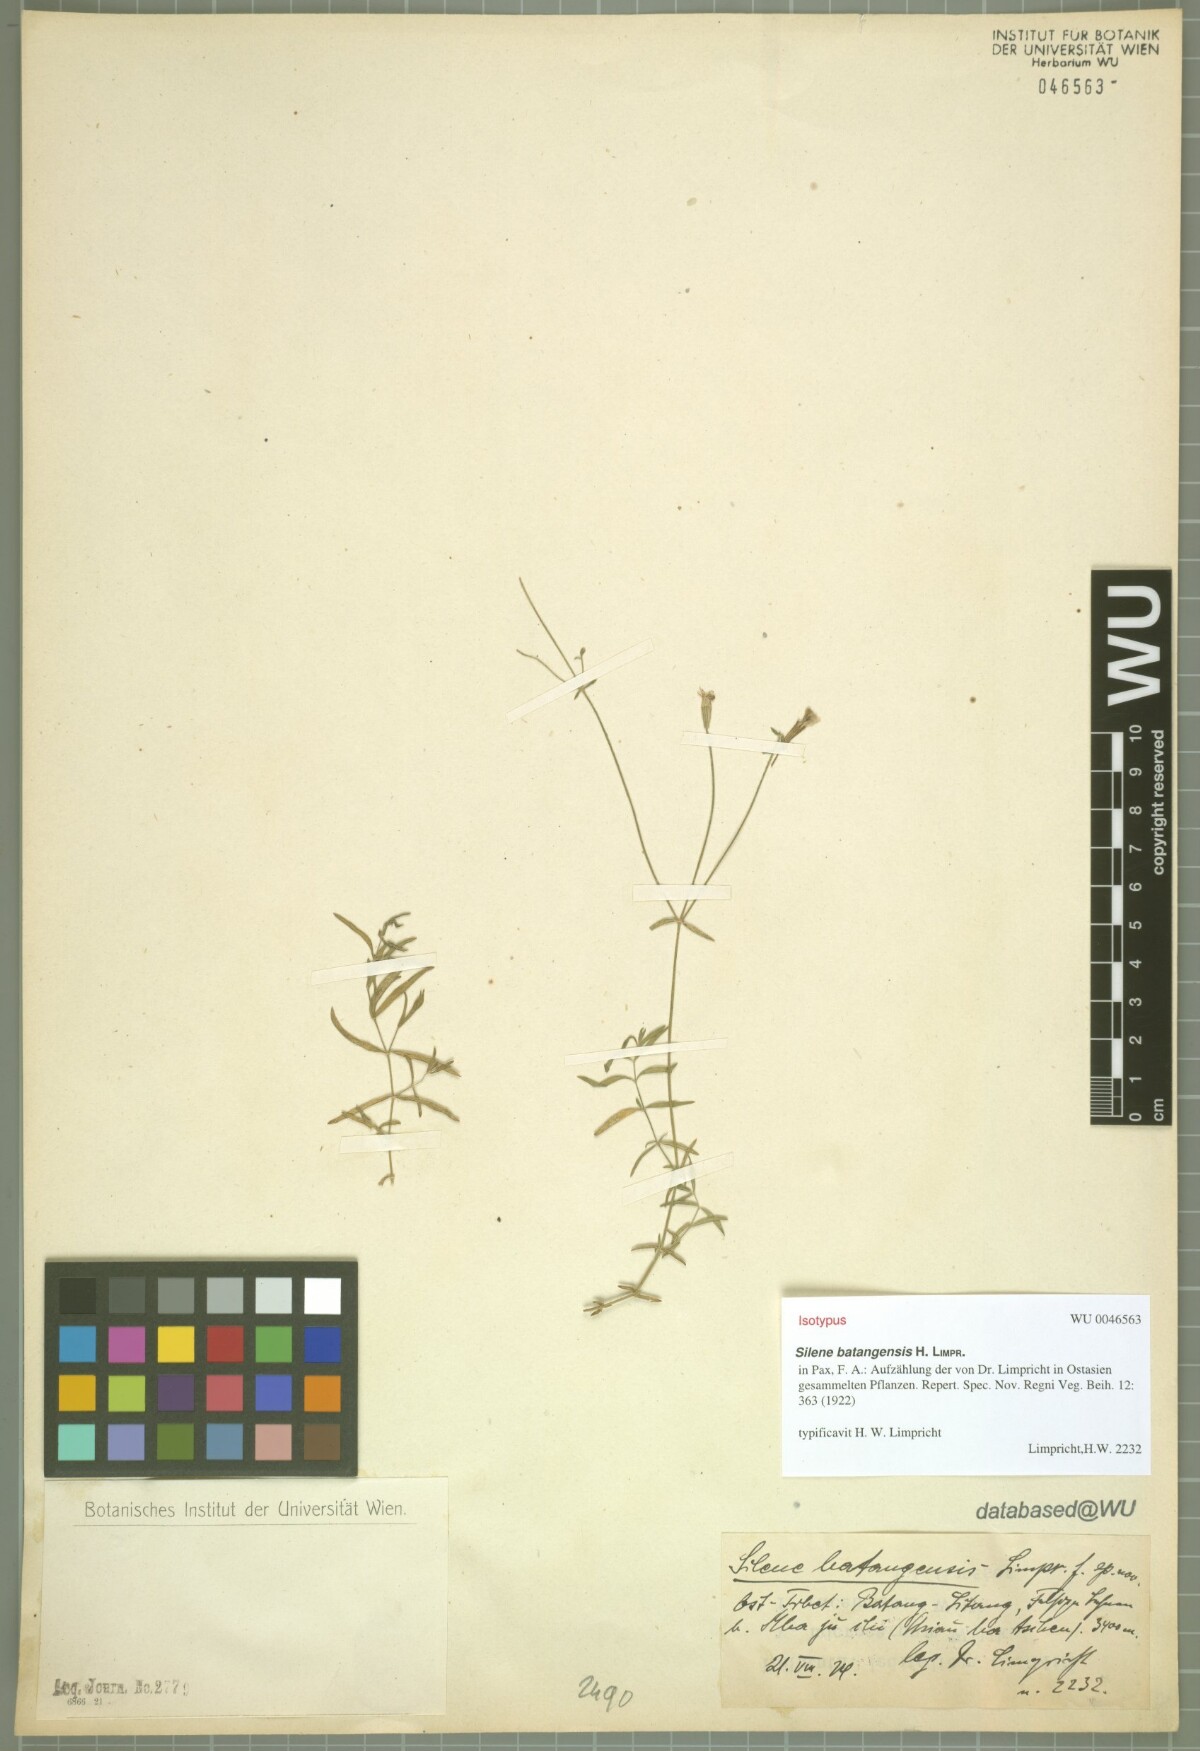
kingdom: Plantae
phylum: Tracheophyta
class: Magnoliopsida
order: Caryophyllales
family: Caryophyllaceae
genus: Silene
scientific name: Silene batangensis
